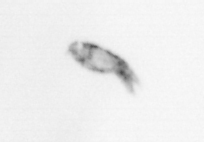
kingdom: Animalia
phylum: Arthropoda
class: Malacostraca
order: Decapoda
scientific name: Decapoda
